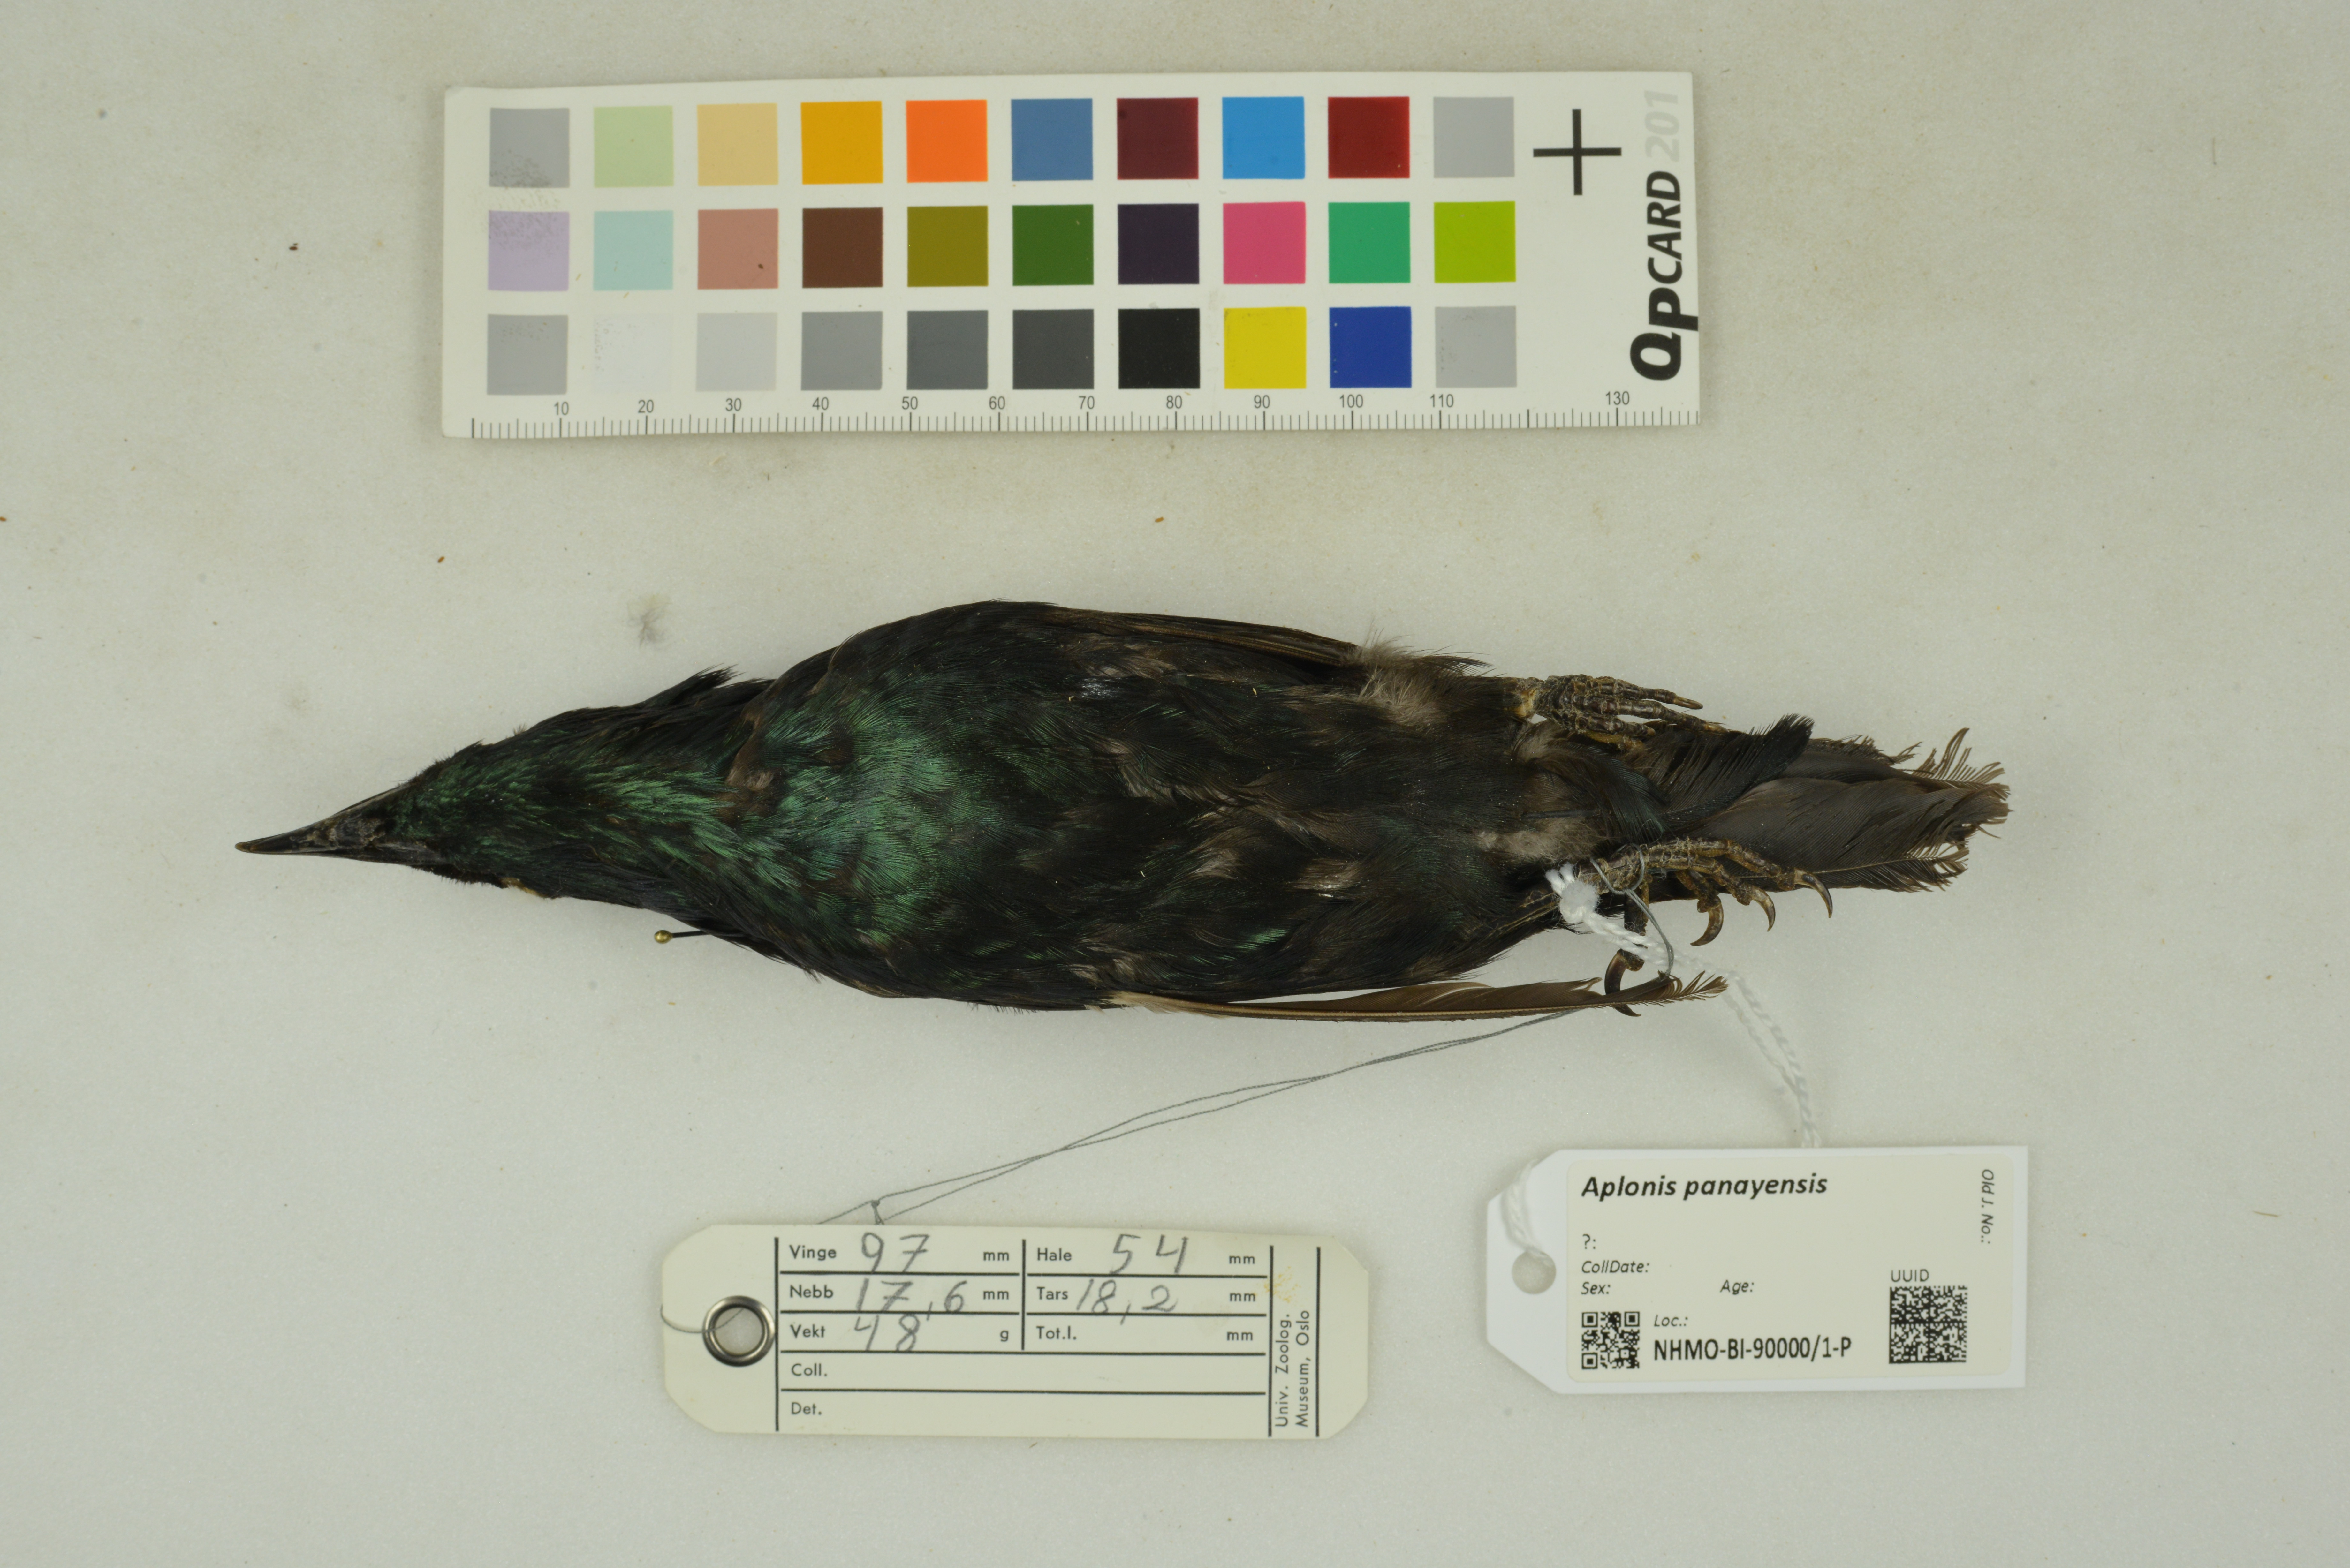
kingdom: Animalia
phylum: Chordata
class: Aves
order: Passeriformes
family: Sturnidae
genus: Aplonis
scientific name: Aplonis panayensis
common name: Asian glossy starling
